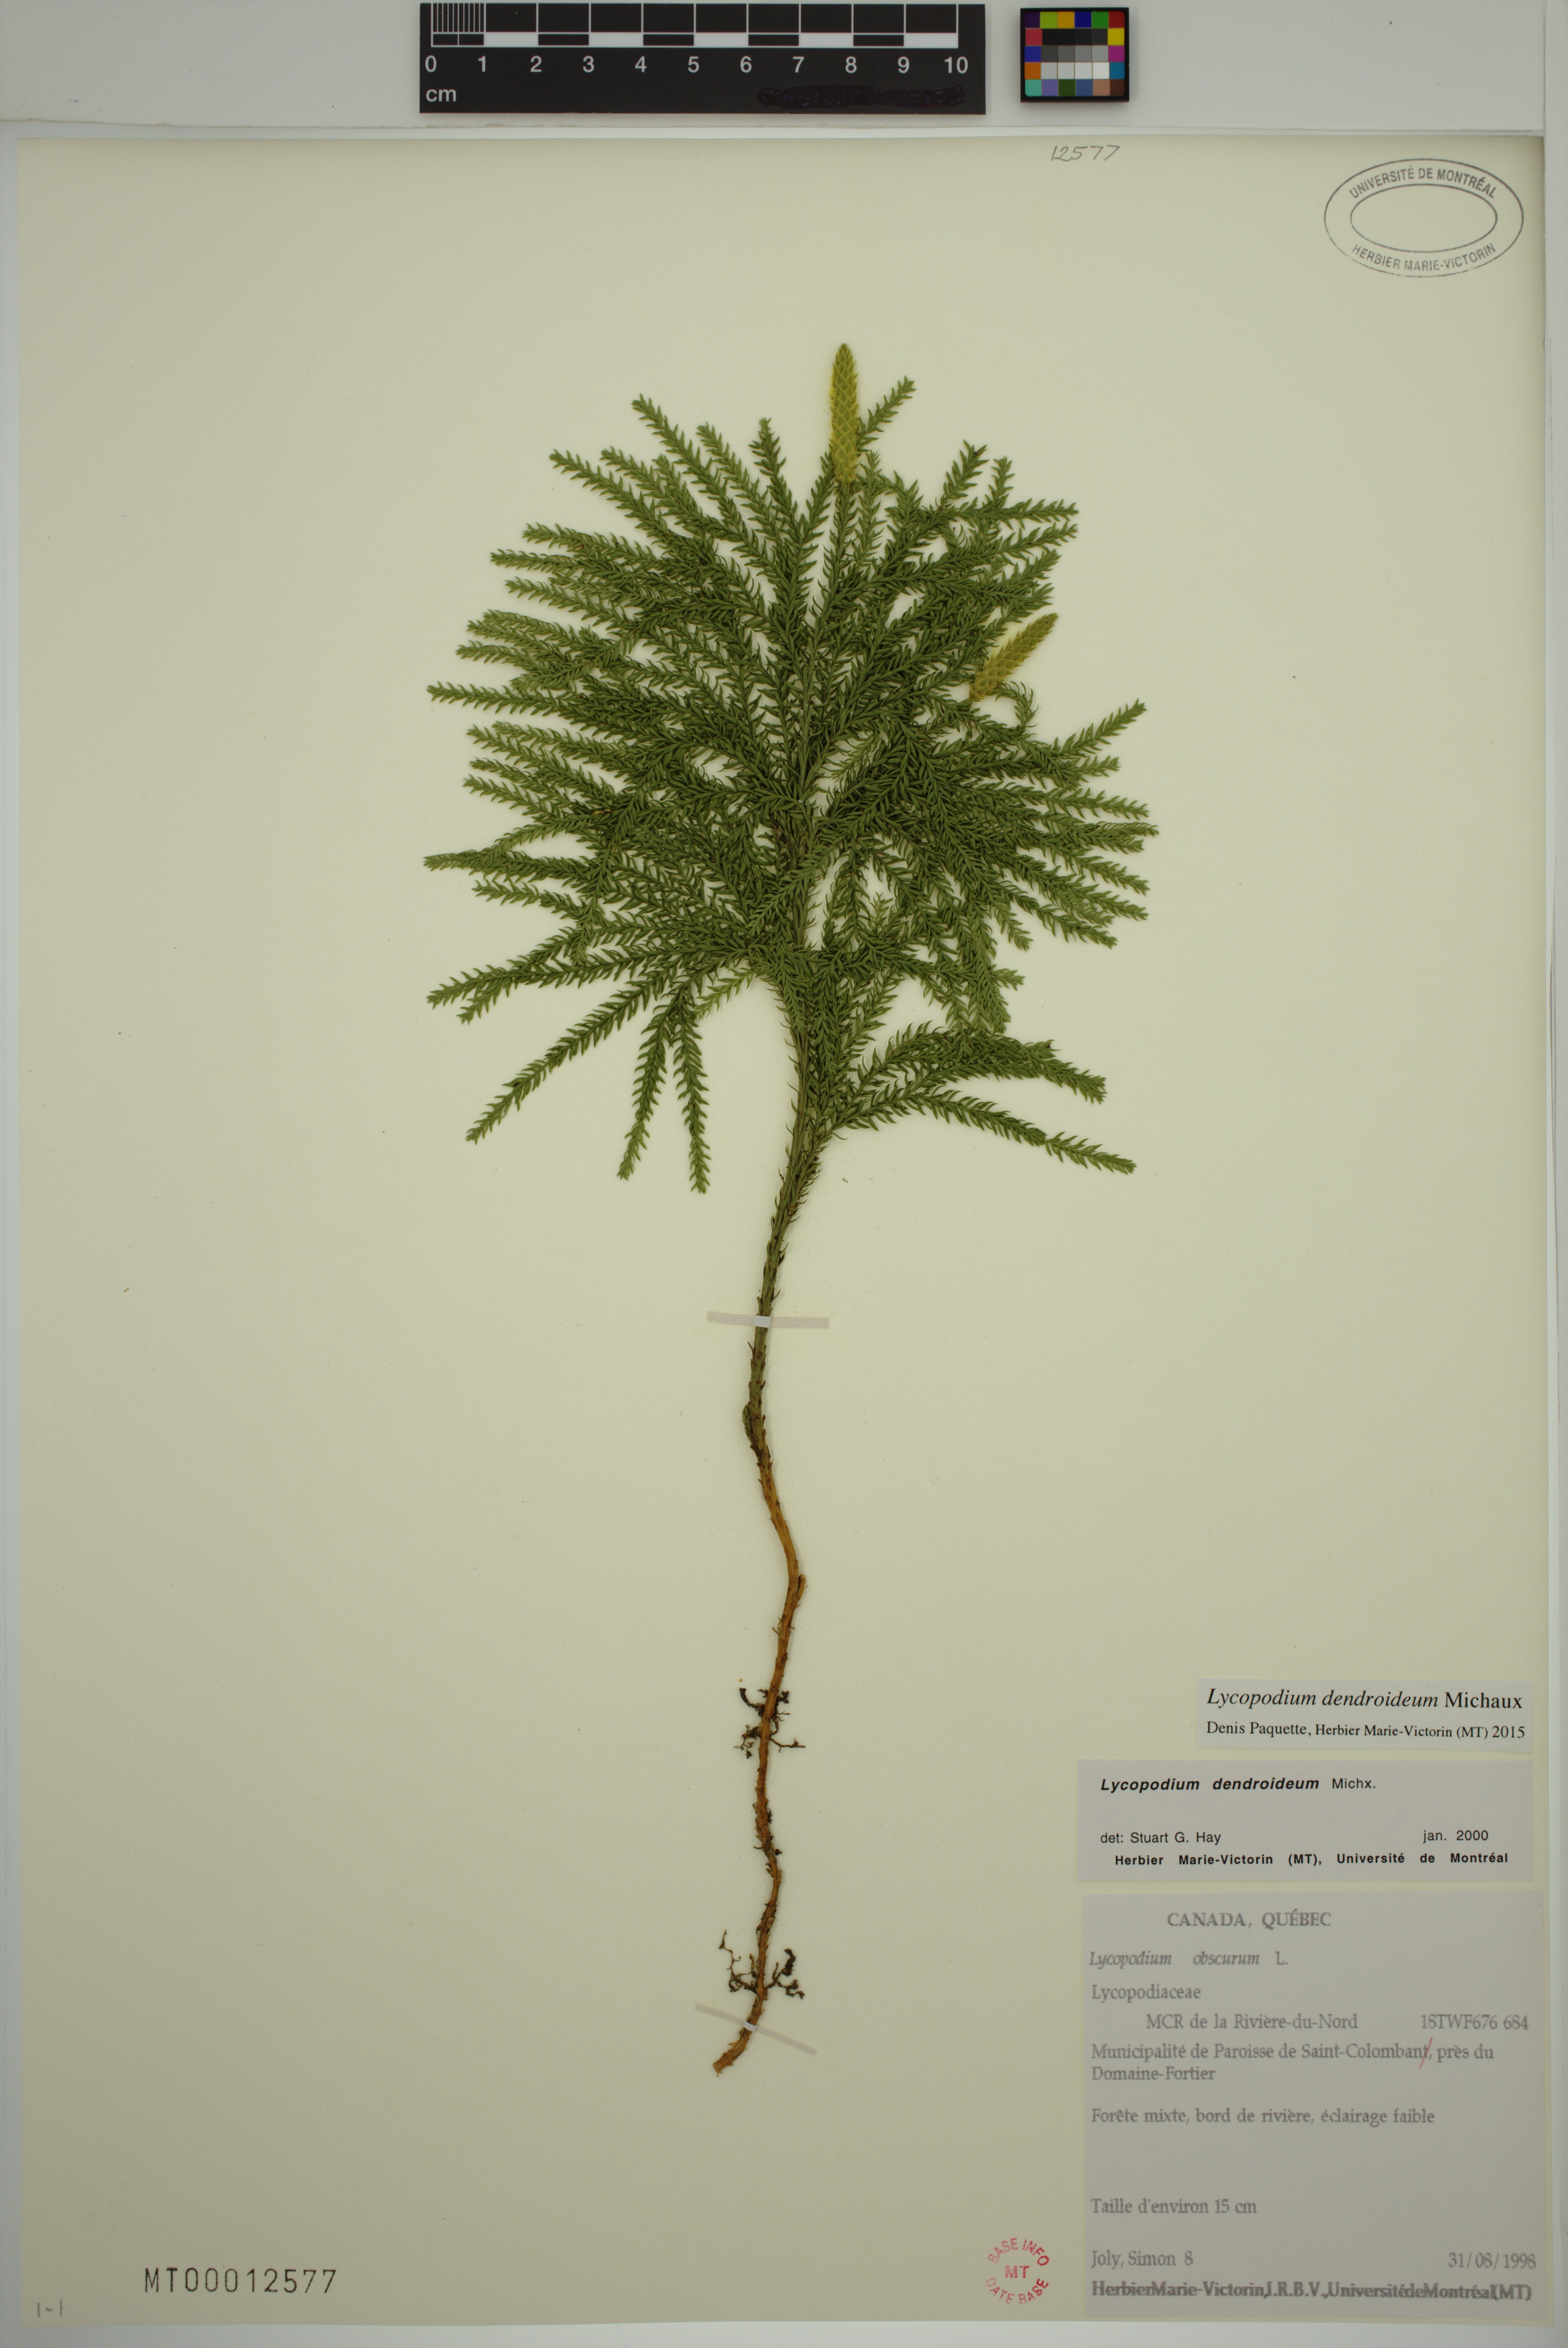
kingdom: Plantae
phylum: Tracheophyta
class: Lycopodiopsida
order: Lycopodiales
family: Lycopodiaceae
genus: Dendrolycopodium
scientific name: Dendrolycopodium dendroideum
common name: Northern tree-clubmoss
